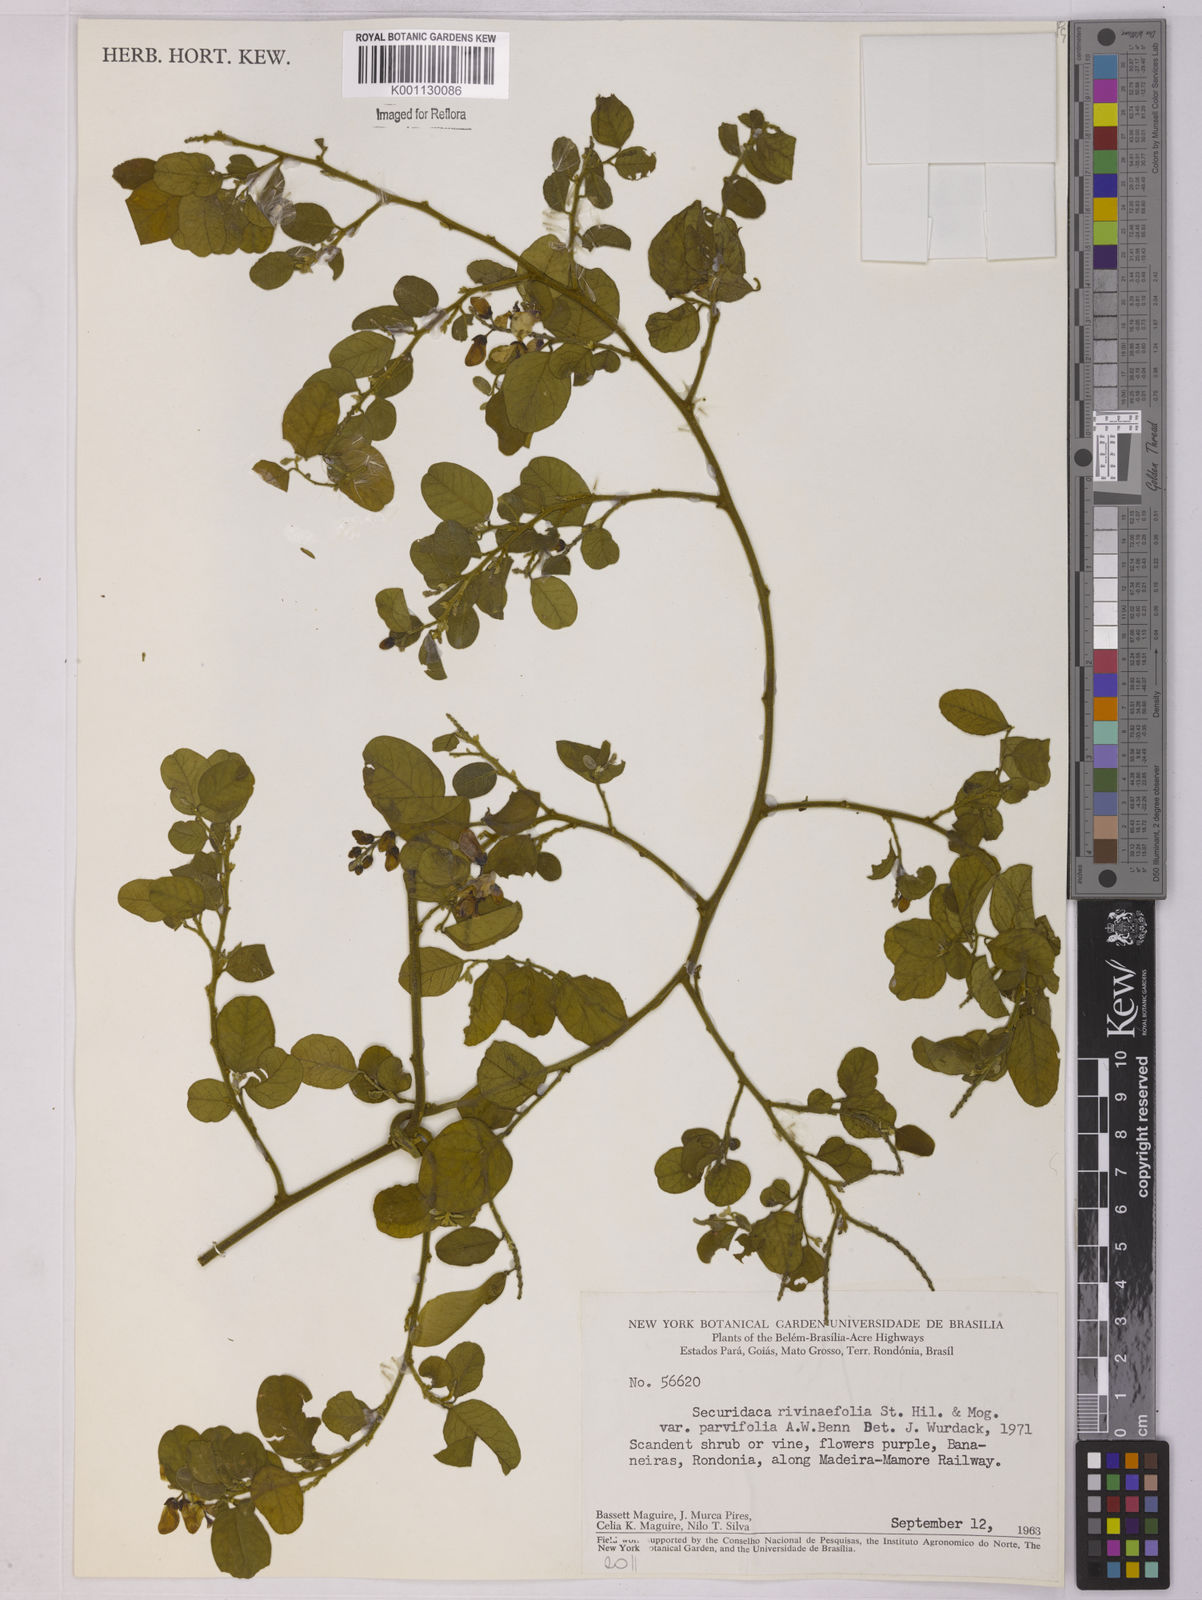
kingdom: Plantae
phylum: Tracheophyta
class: Magnoliopsida
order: Fabales
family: Polygalaceae
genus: Securidaca
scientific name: Securidaca rivinifolia
